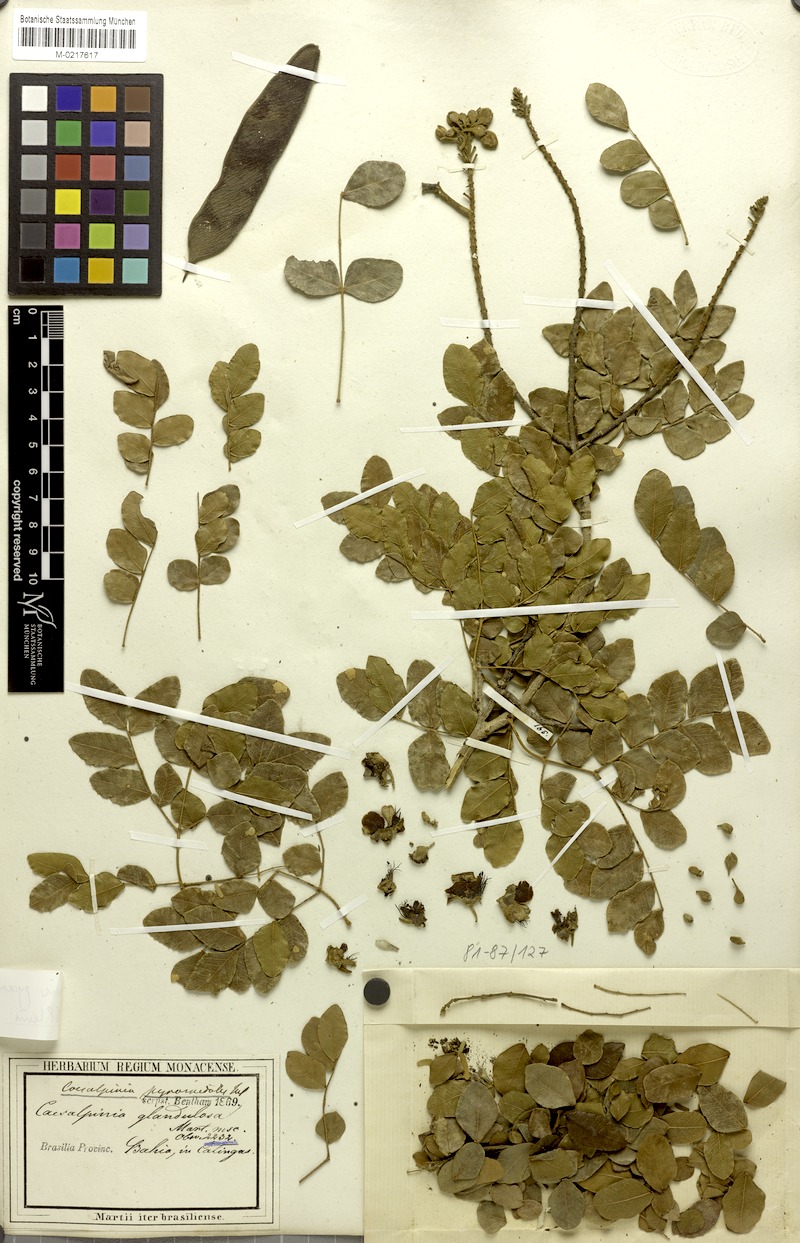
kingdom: Plantae
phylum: Tracheophyta
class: Magnoliopsida
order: Fabales
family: Fabaceae
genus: Cenostigma
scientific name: Cenostigma pyramidale
